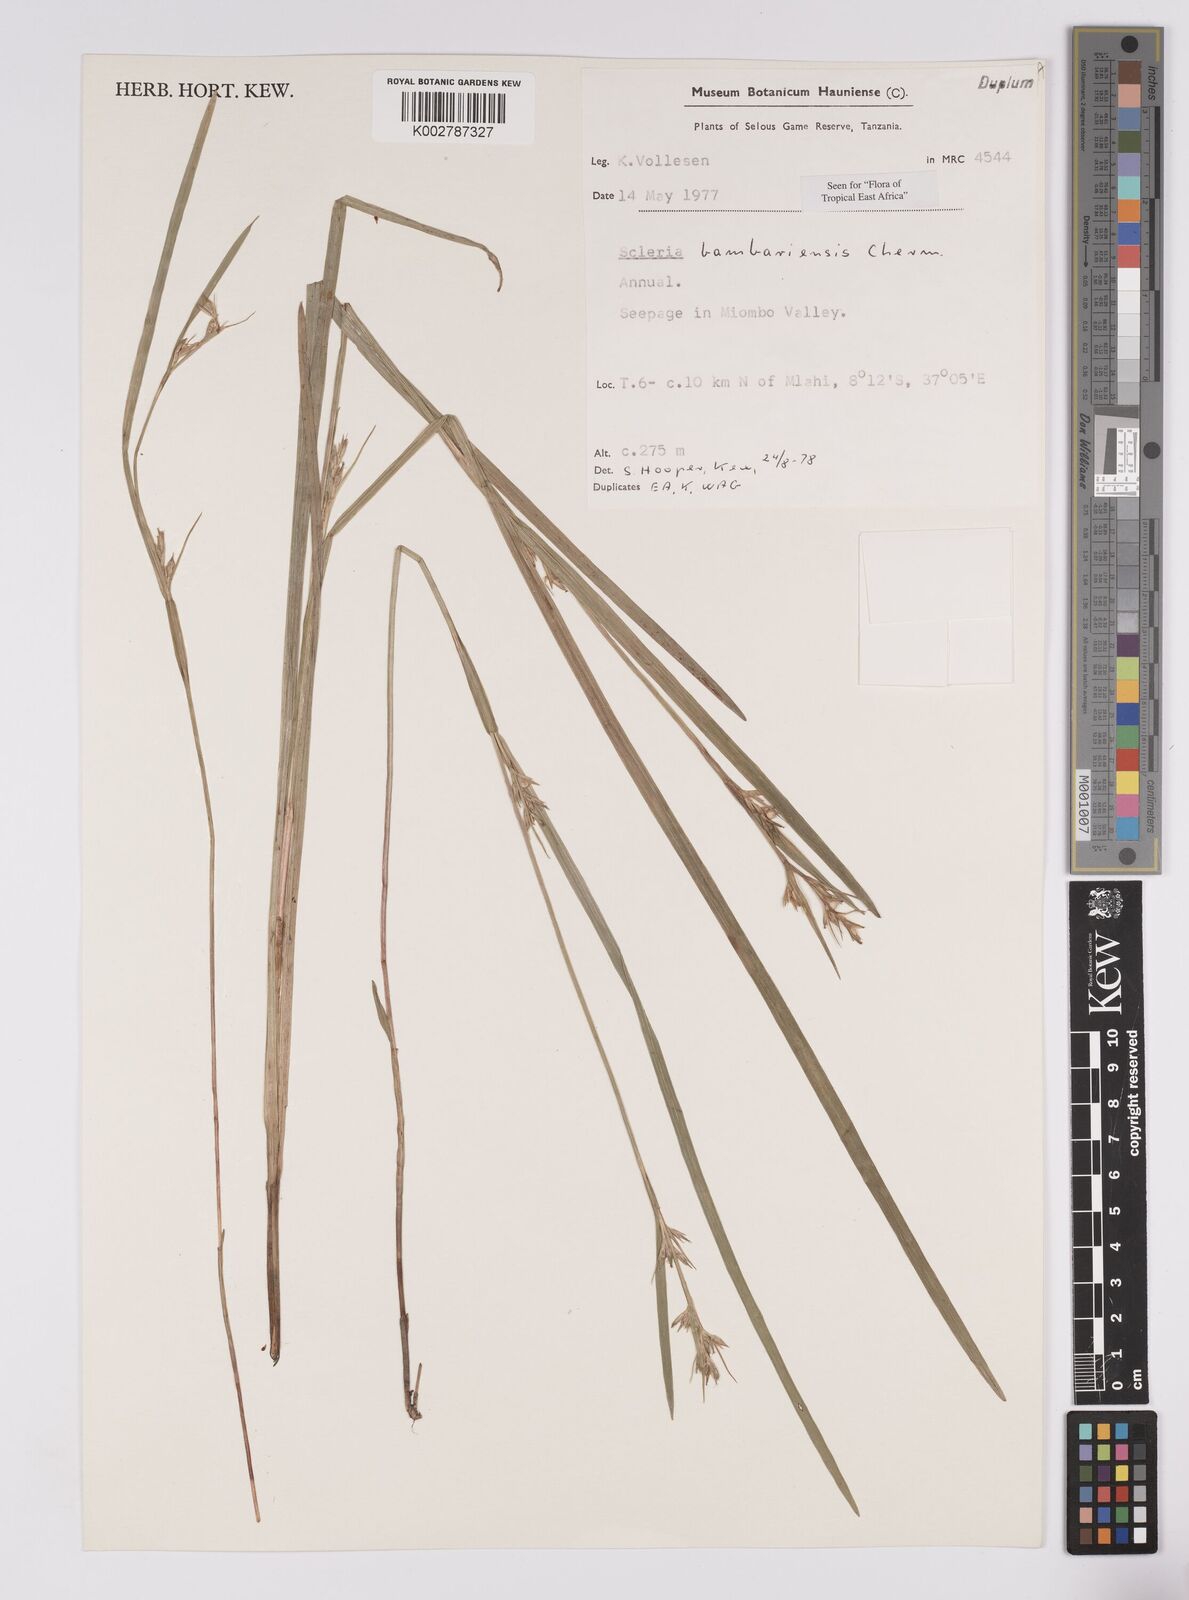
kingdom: Plantae
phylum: Tracheophyta
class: Liliopsida
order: Poales
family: Cyperaceae
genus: Scleria
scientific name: Scleria bambariensis
